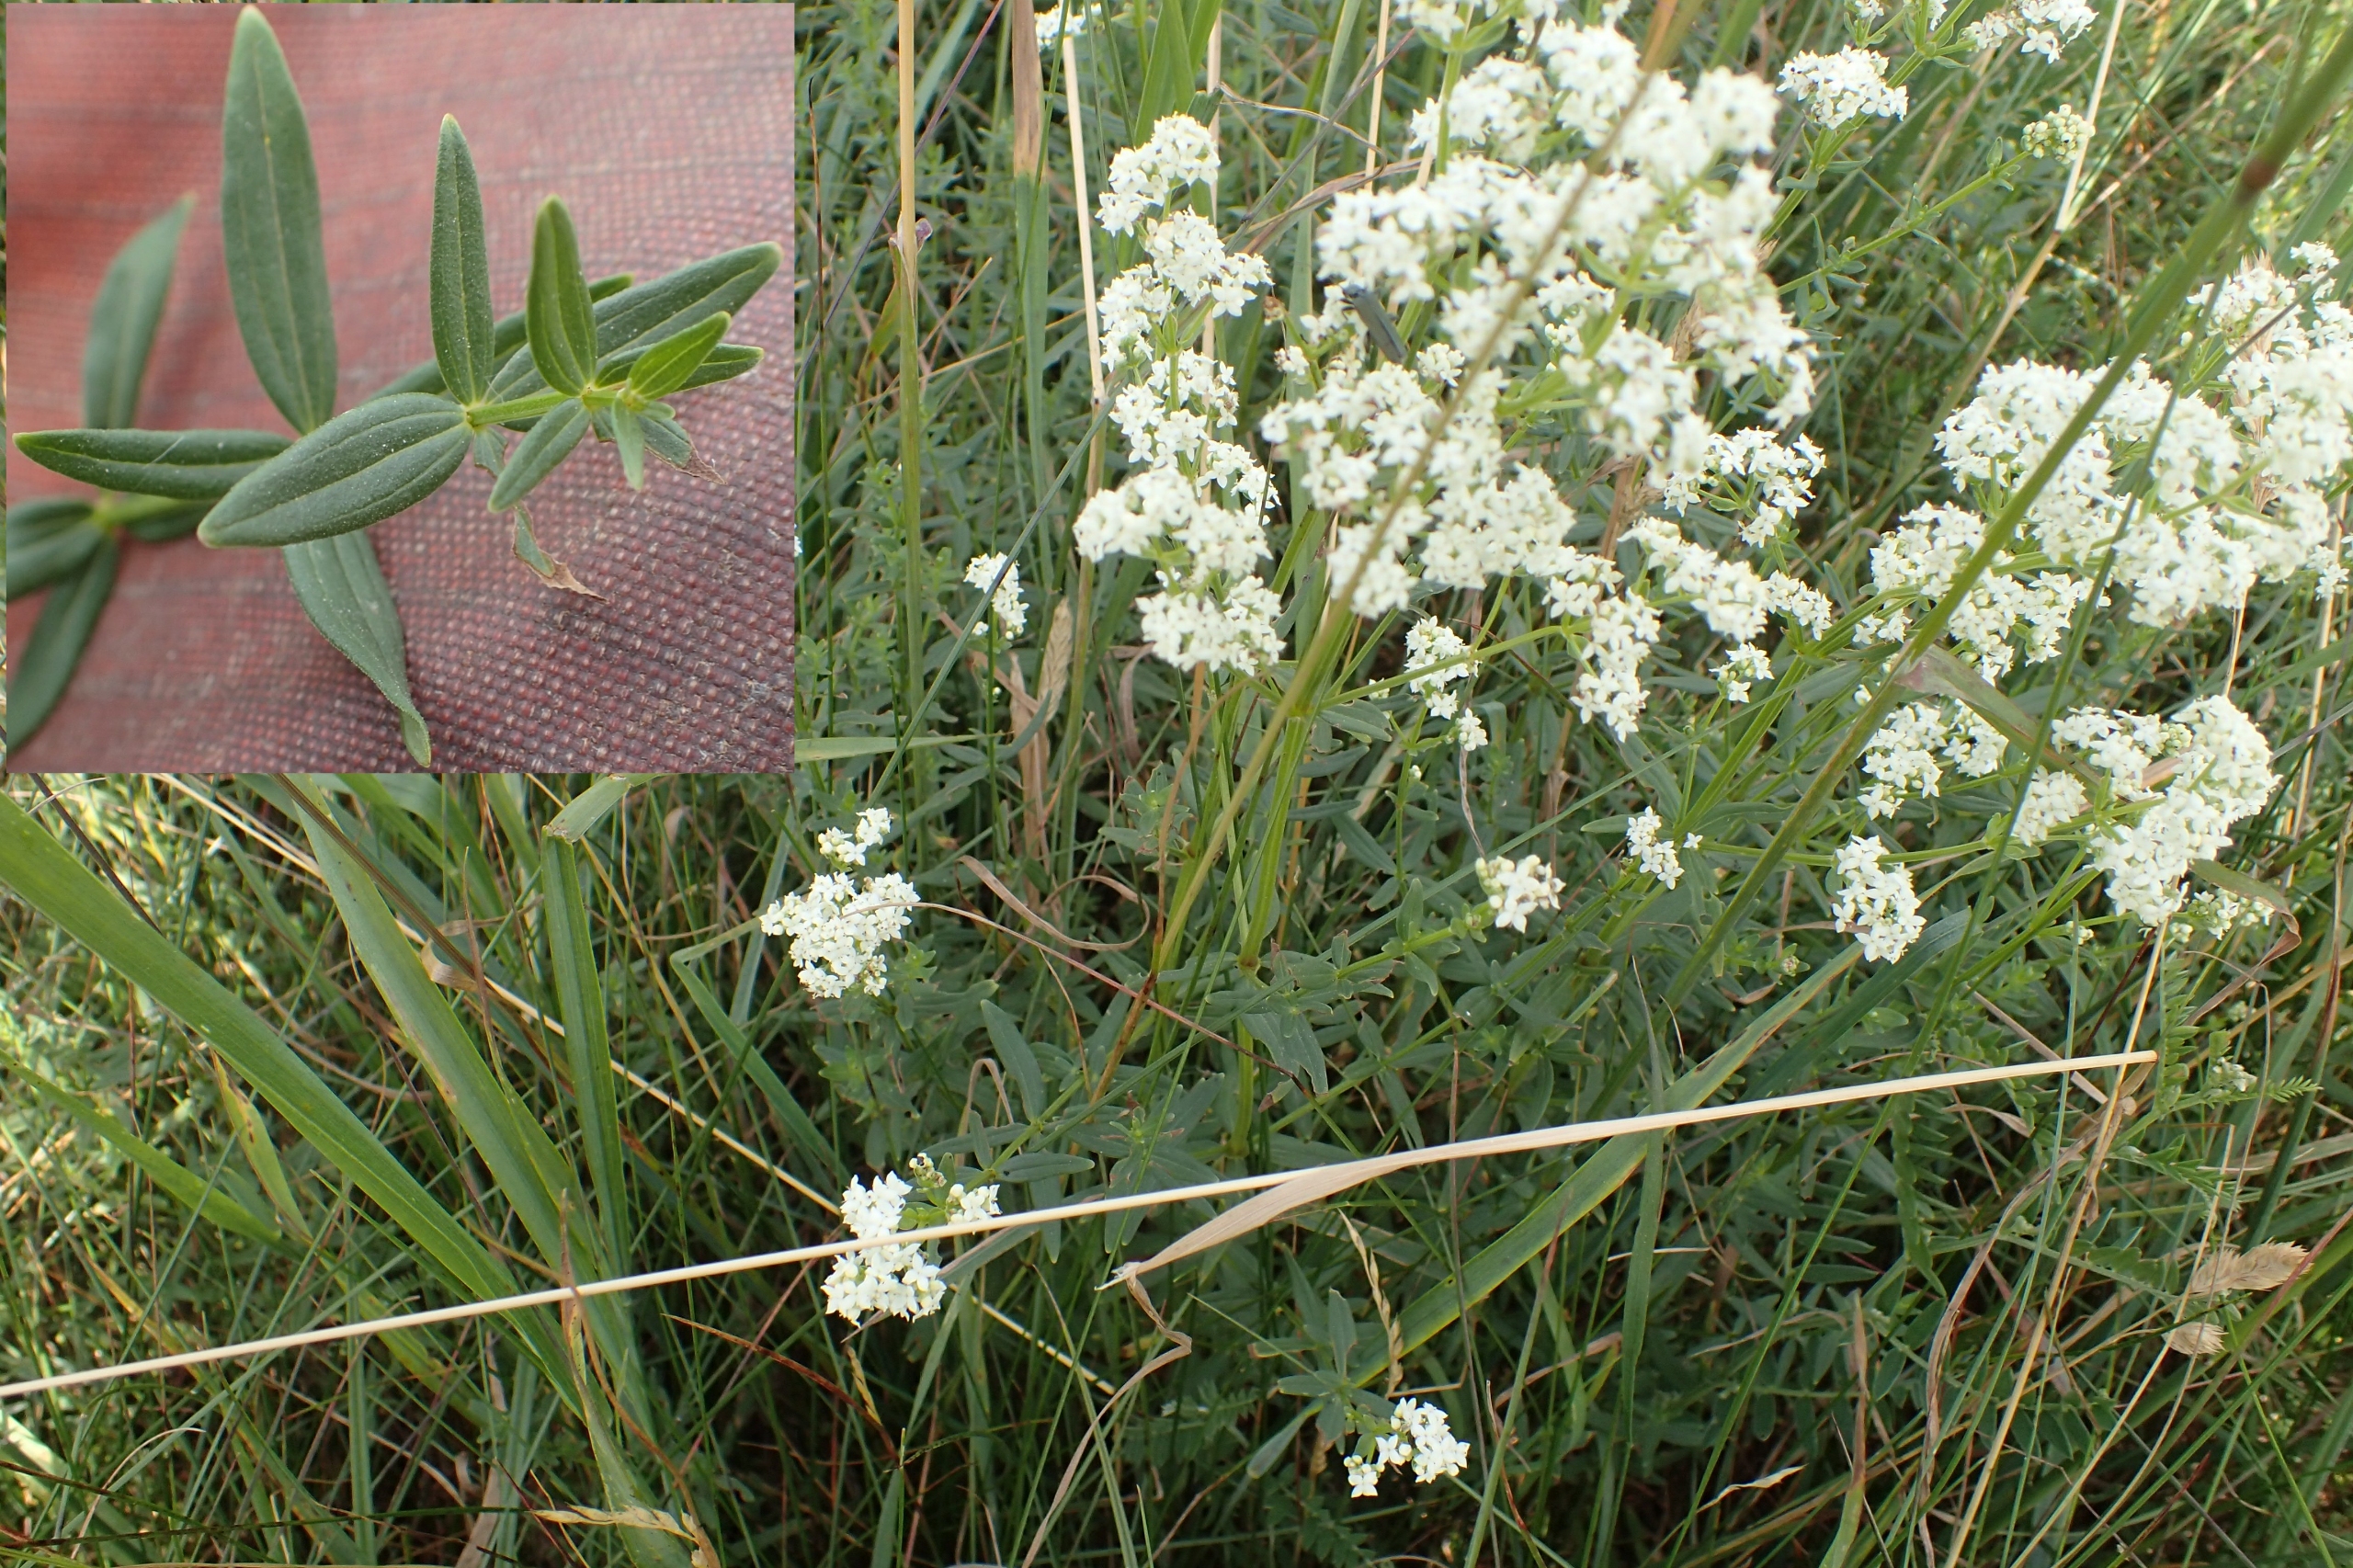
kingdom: Plantae
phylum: Tracheophyta
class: Magnoliopsida
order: Gentianales
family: Rubiaceae
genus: Galium
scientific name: Galium boreale
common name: Trenervet snerre
